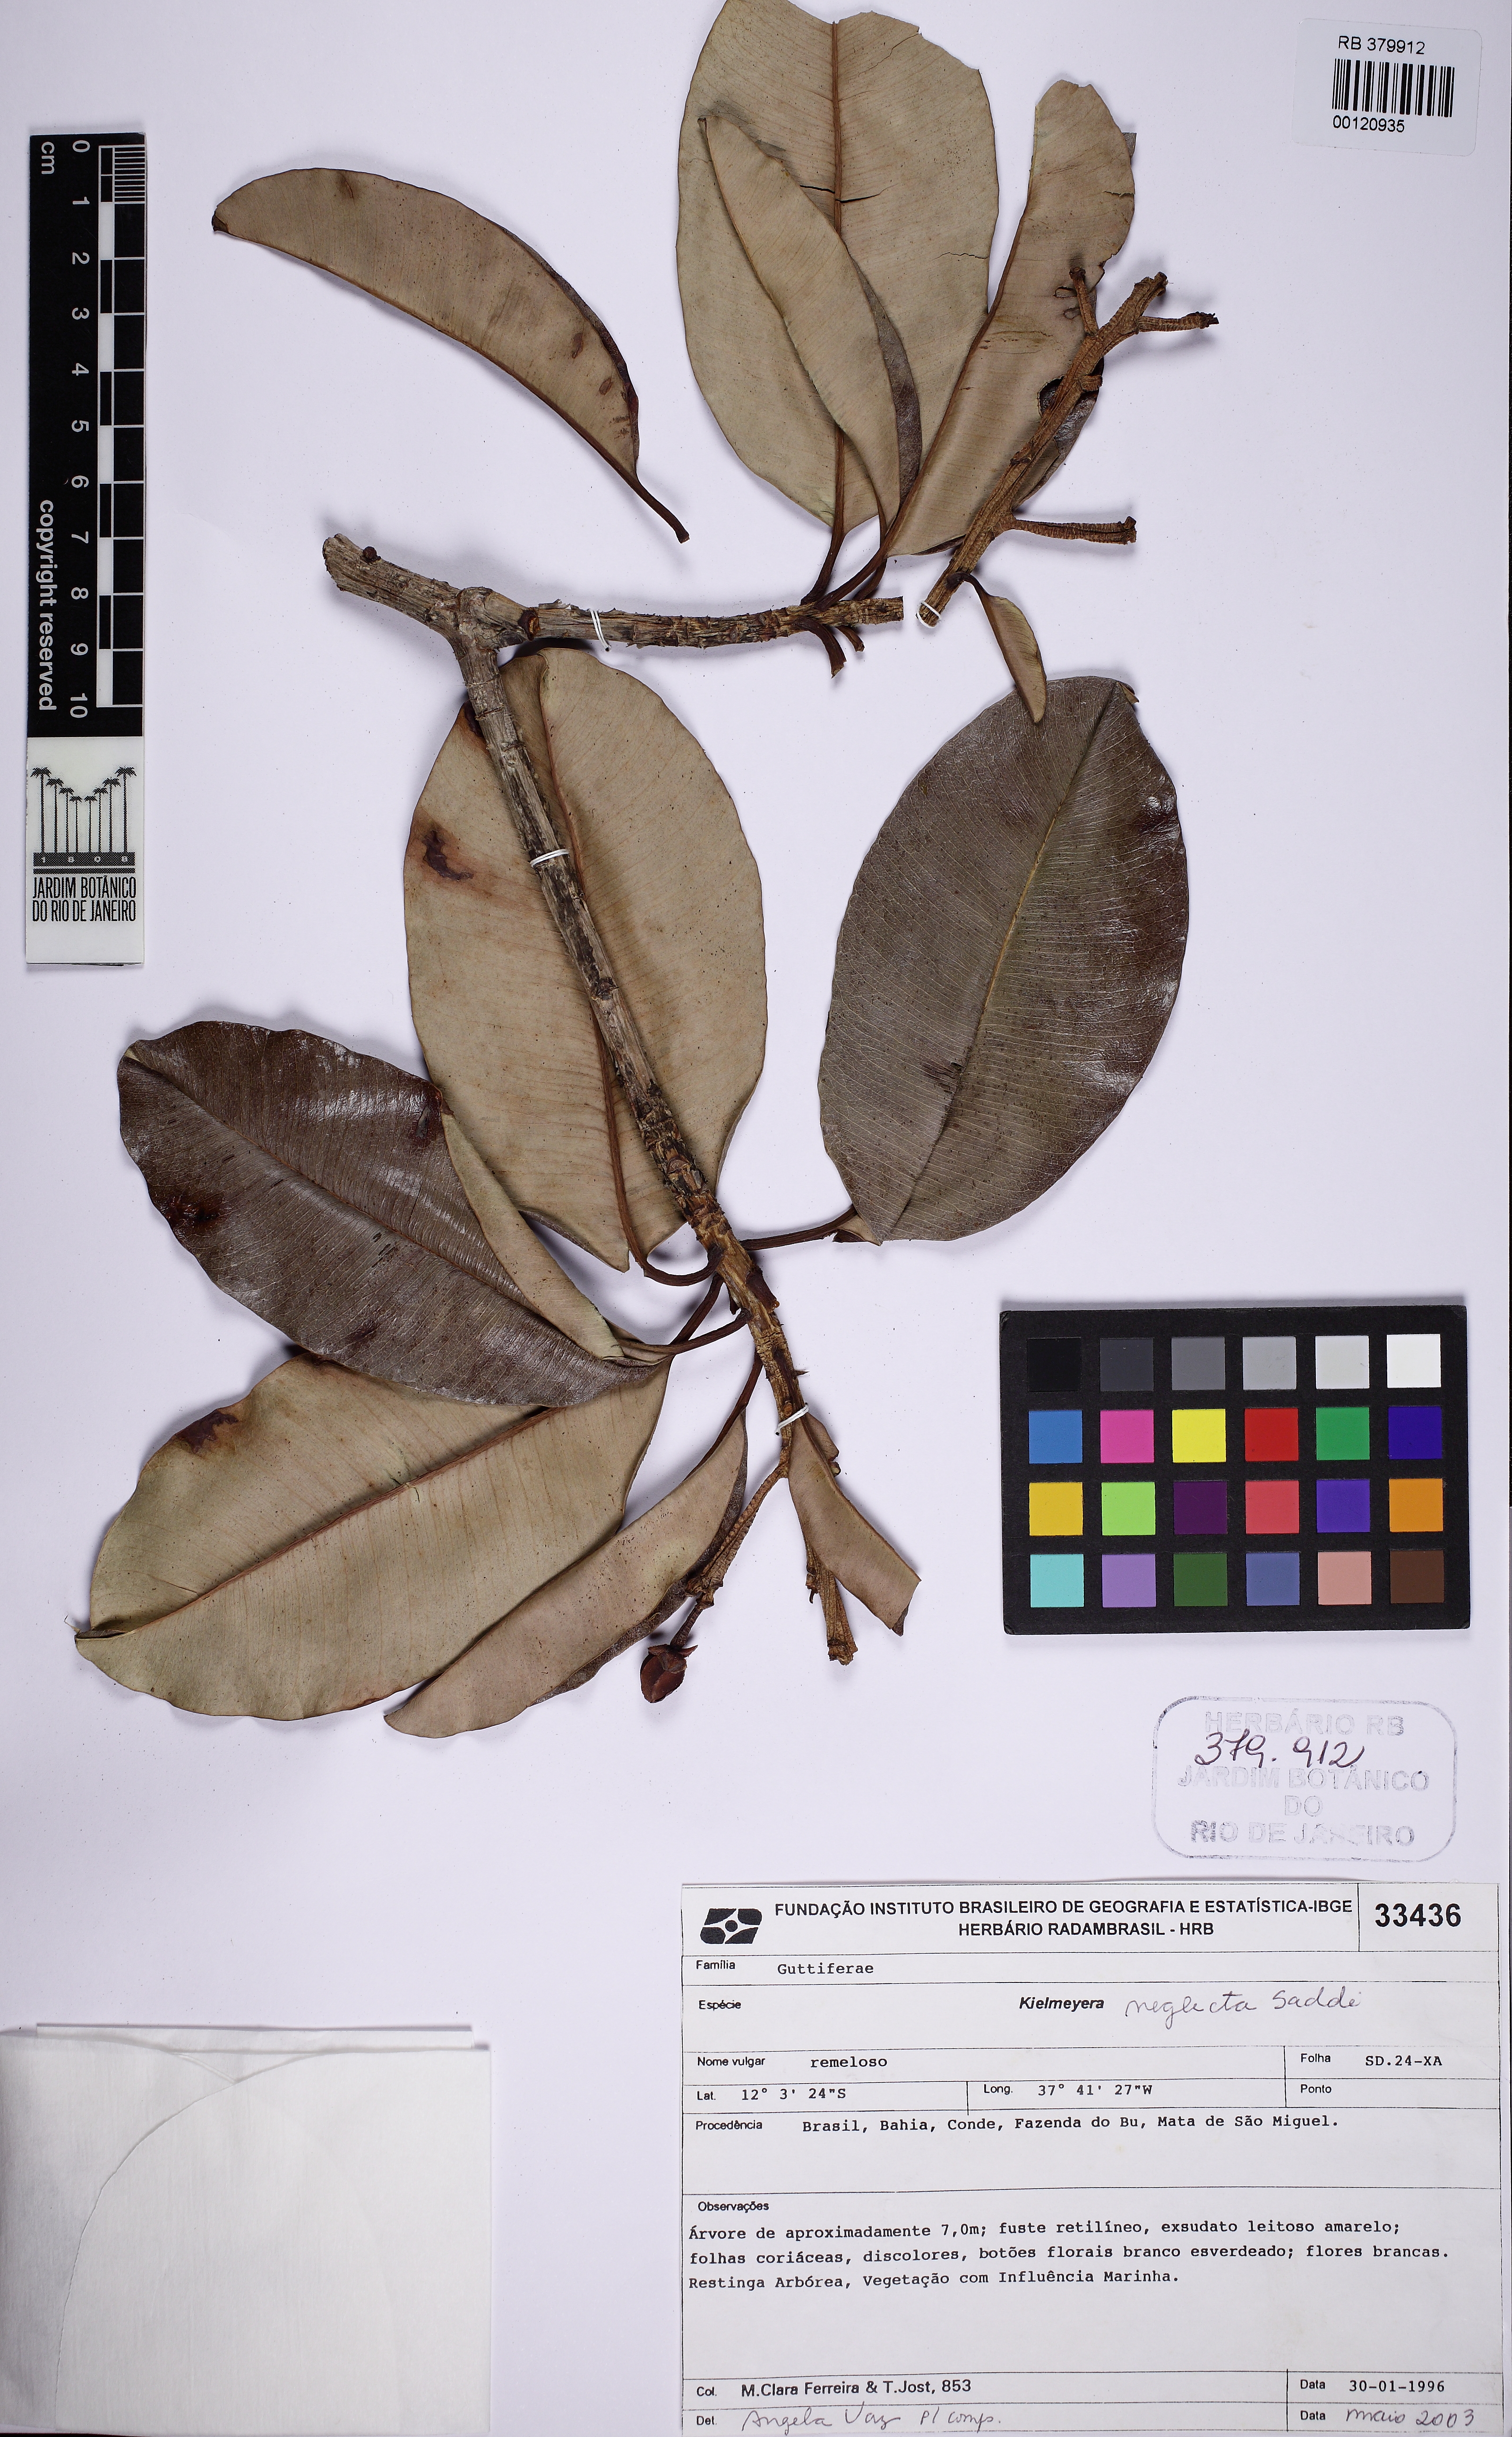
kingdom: Plantae
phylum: Tracheophyta
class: Magnoliopsida
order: Malpighiales
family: Calophyllaceae
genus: Kielmeyera
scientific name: Kielmeyera neglecta
